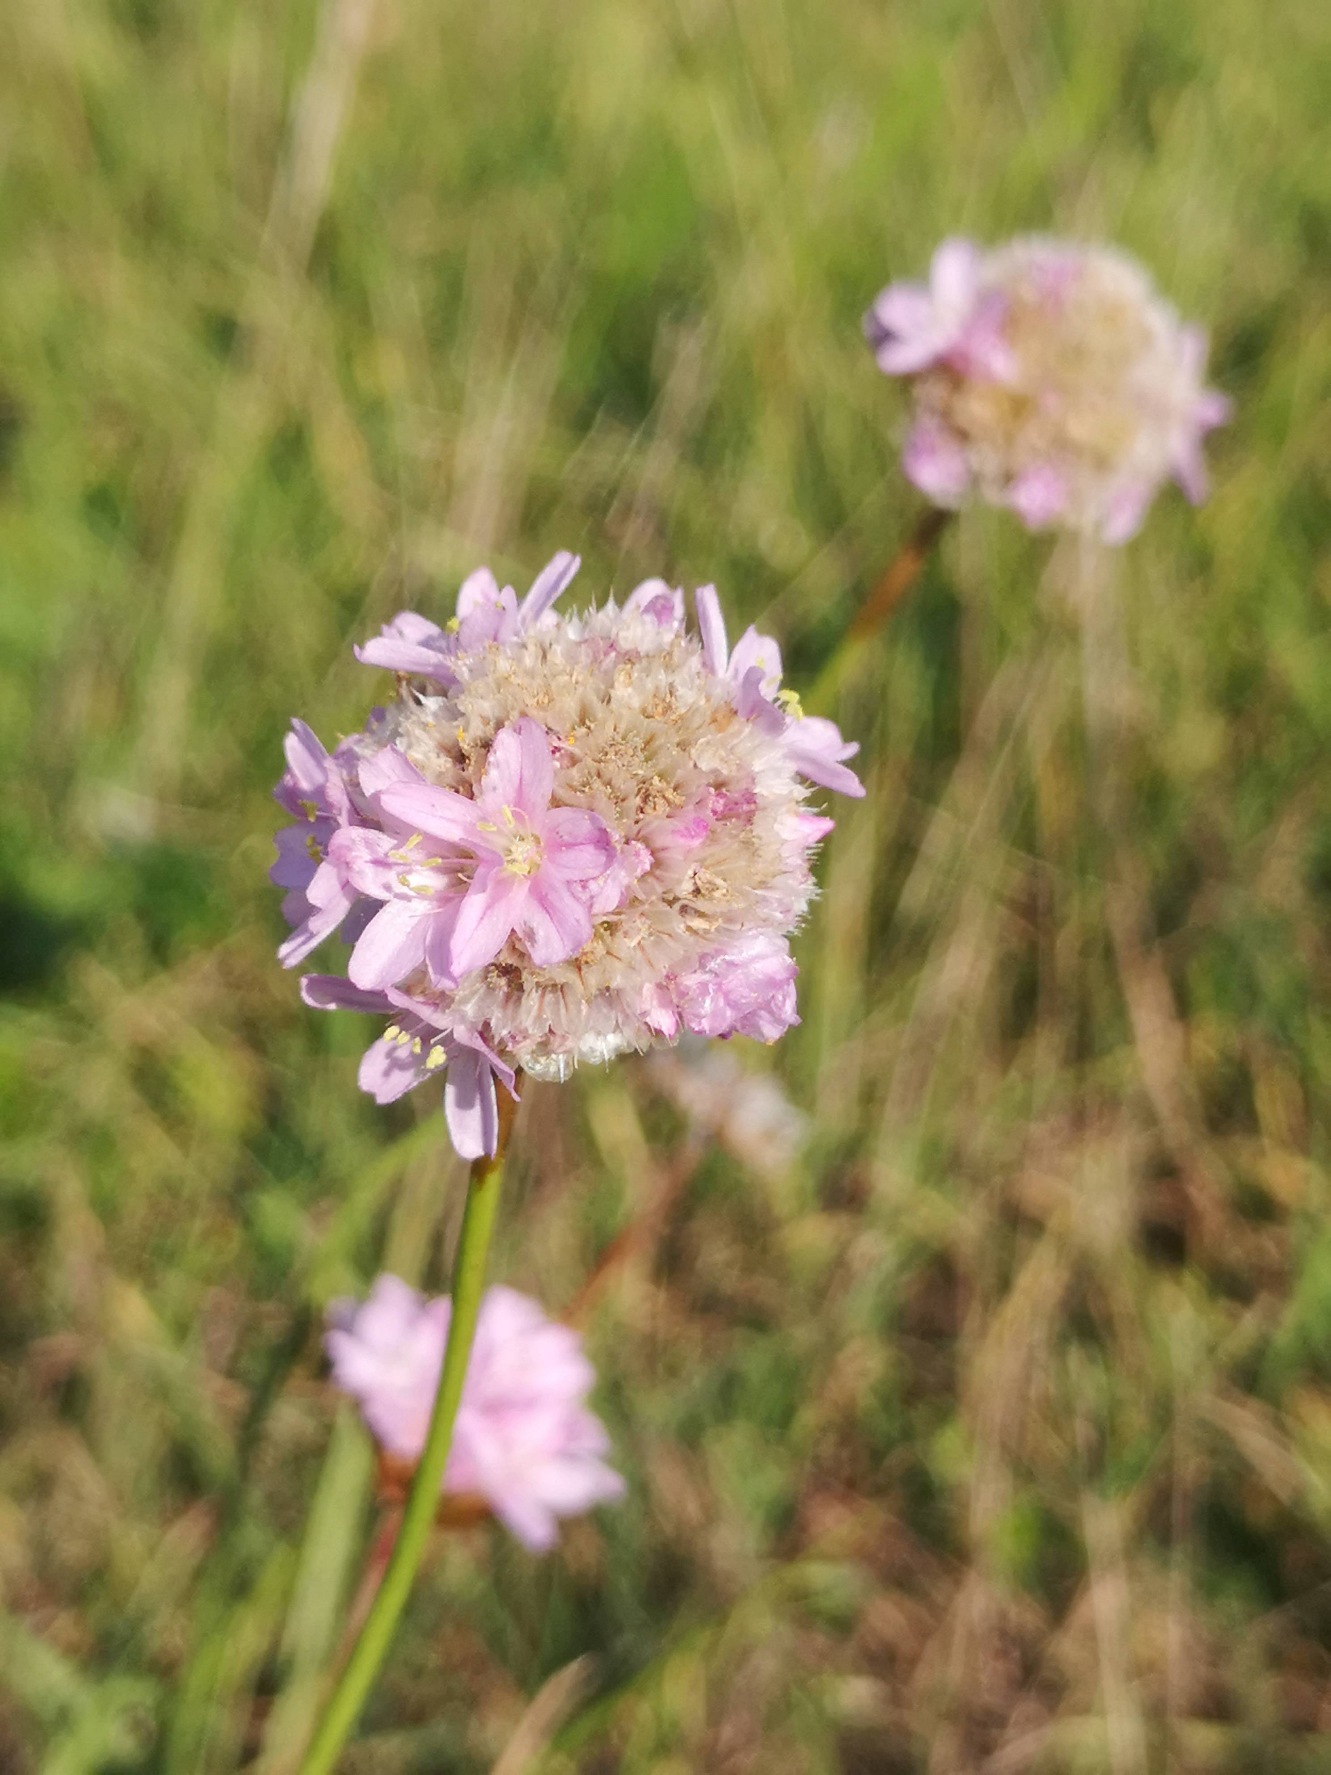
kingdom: Plantae
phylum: Tracheophyta
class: Magnoliopsida
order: Caryophyllales
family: Plumbaginaceae
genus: Armeria
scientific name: Armeria maritima
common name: Engelskgræs
